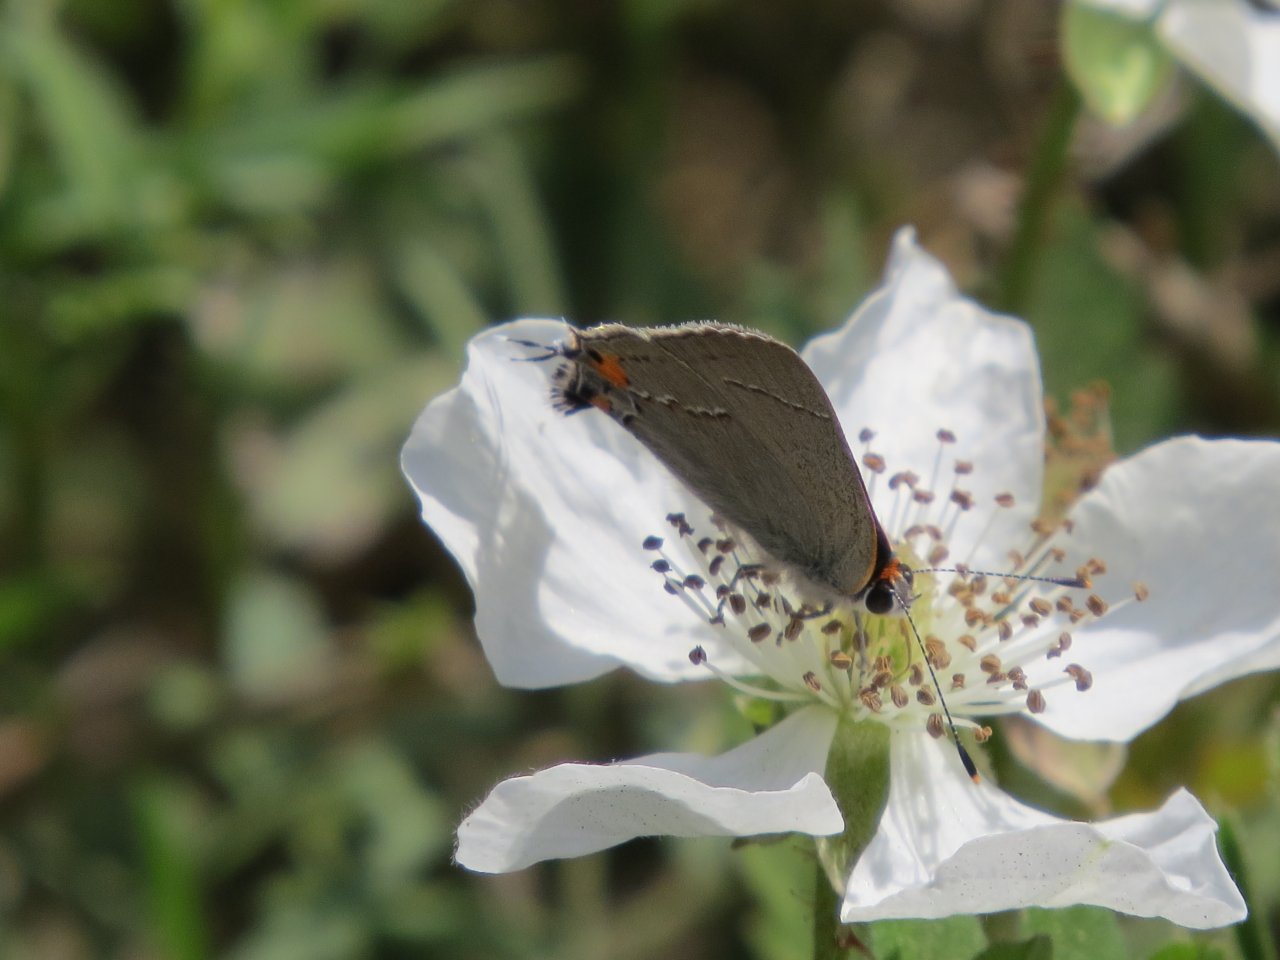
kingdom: Animalia
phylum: Arthropoda
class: Insecta
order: Lepidoptera
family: Lycaenidae
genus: Strymon
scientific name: Strymon melinus
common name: Gray Hairstreak
